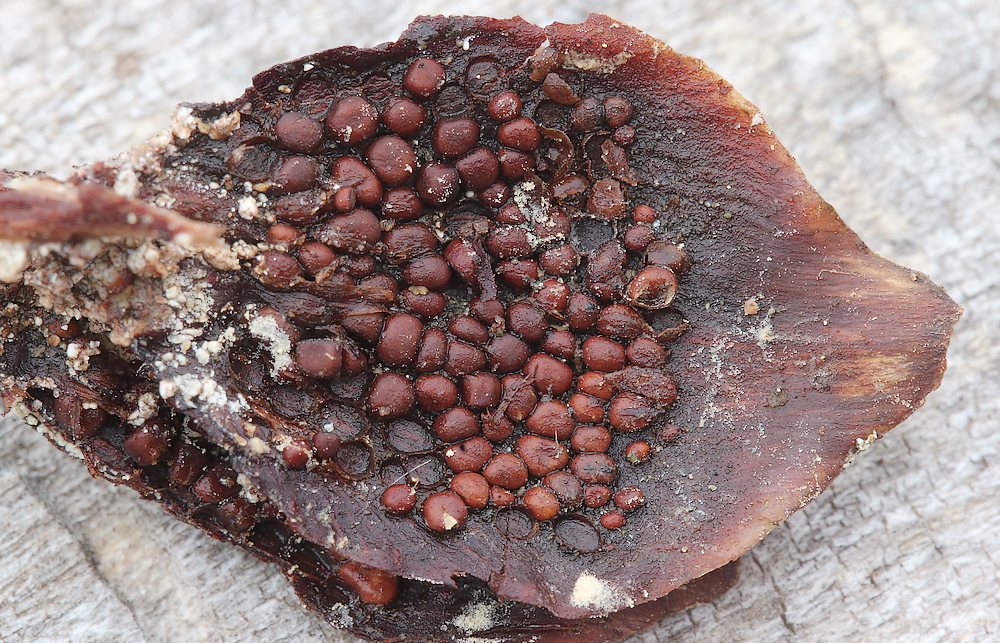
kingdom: Fungi
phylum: Basidiomycota
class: Pucciniomycetes
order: Pucciniales
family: Pucciniastraceae
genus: Thekopsora
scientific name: Thekopsora areolata
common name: grankogle-nålerust
